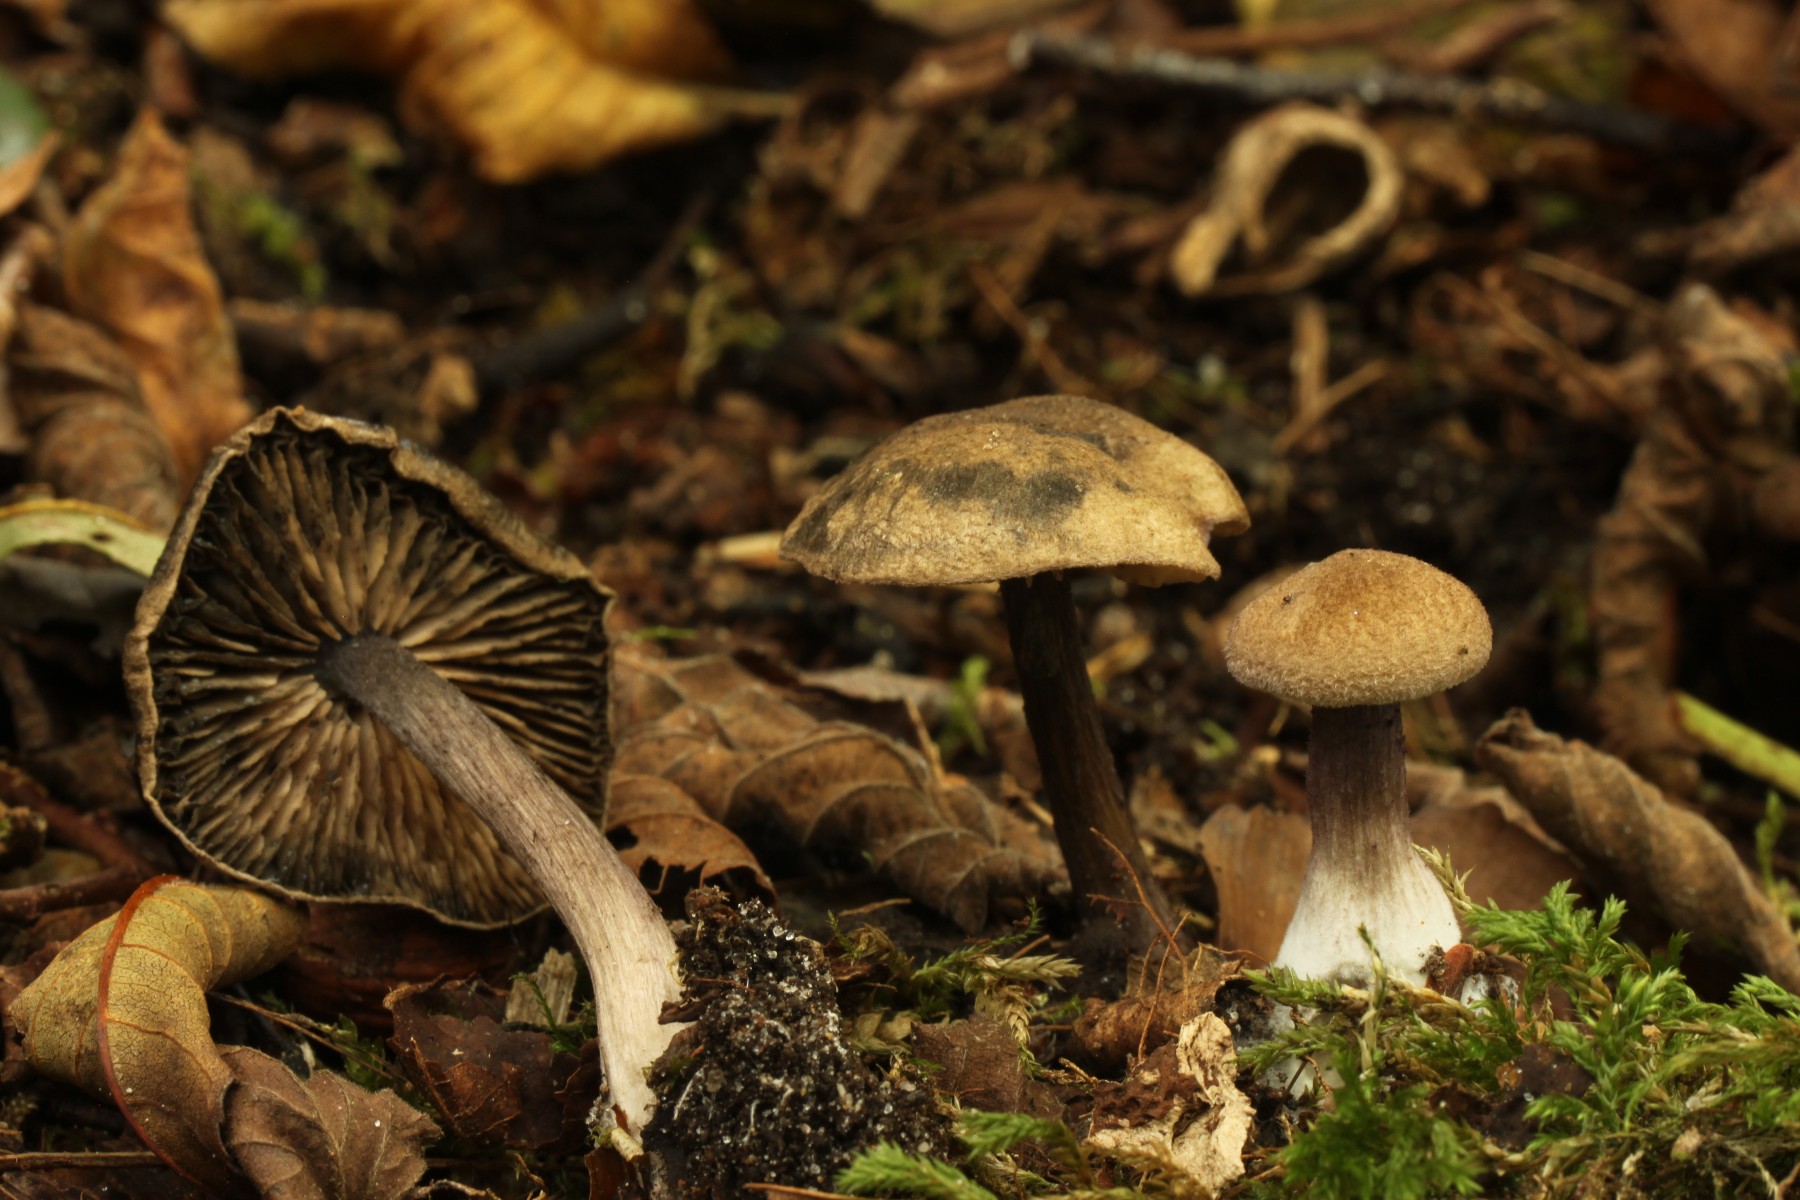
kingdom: Fungi
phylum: Basidiomycota
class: Agaricomycetes
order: Agaricales
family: Entolomataceae
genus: Entoloma
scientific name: Entoloma tjallingiorum
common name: prægtig rødblad
